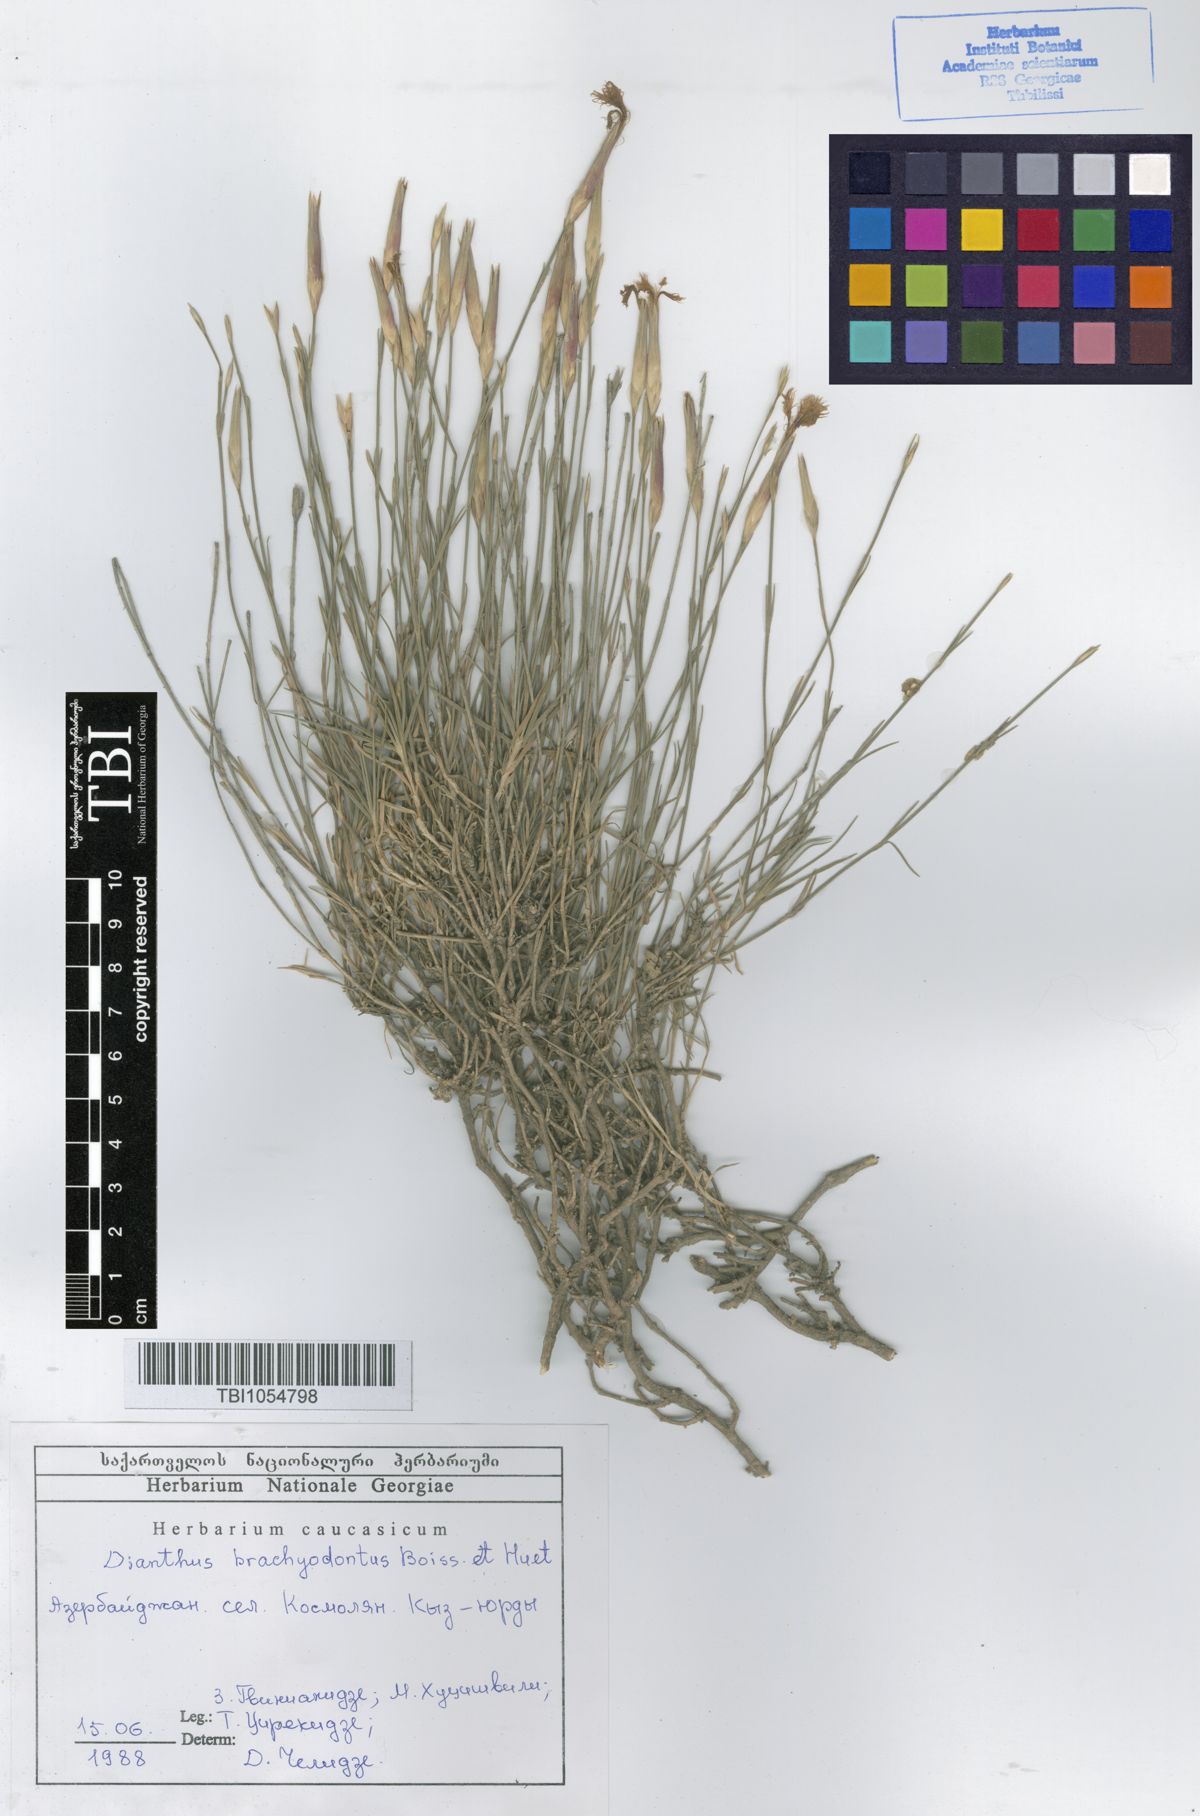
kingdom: Plantae
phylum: Tracheophyta
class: Magnoliopsida
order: Caryophyllales
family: Caryophyllaceae
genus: Dianthus
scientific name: Dianthus
